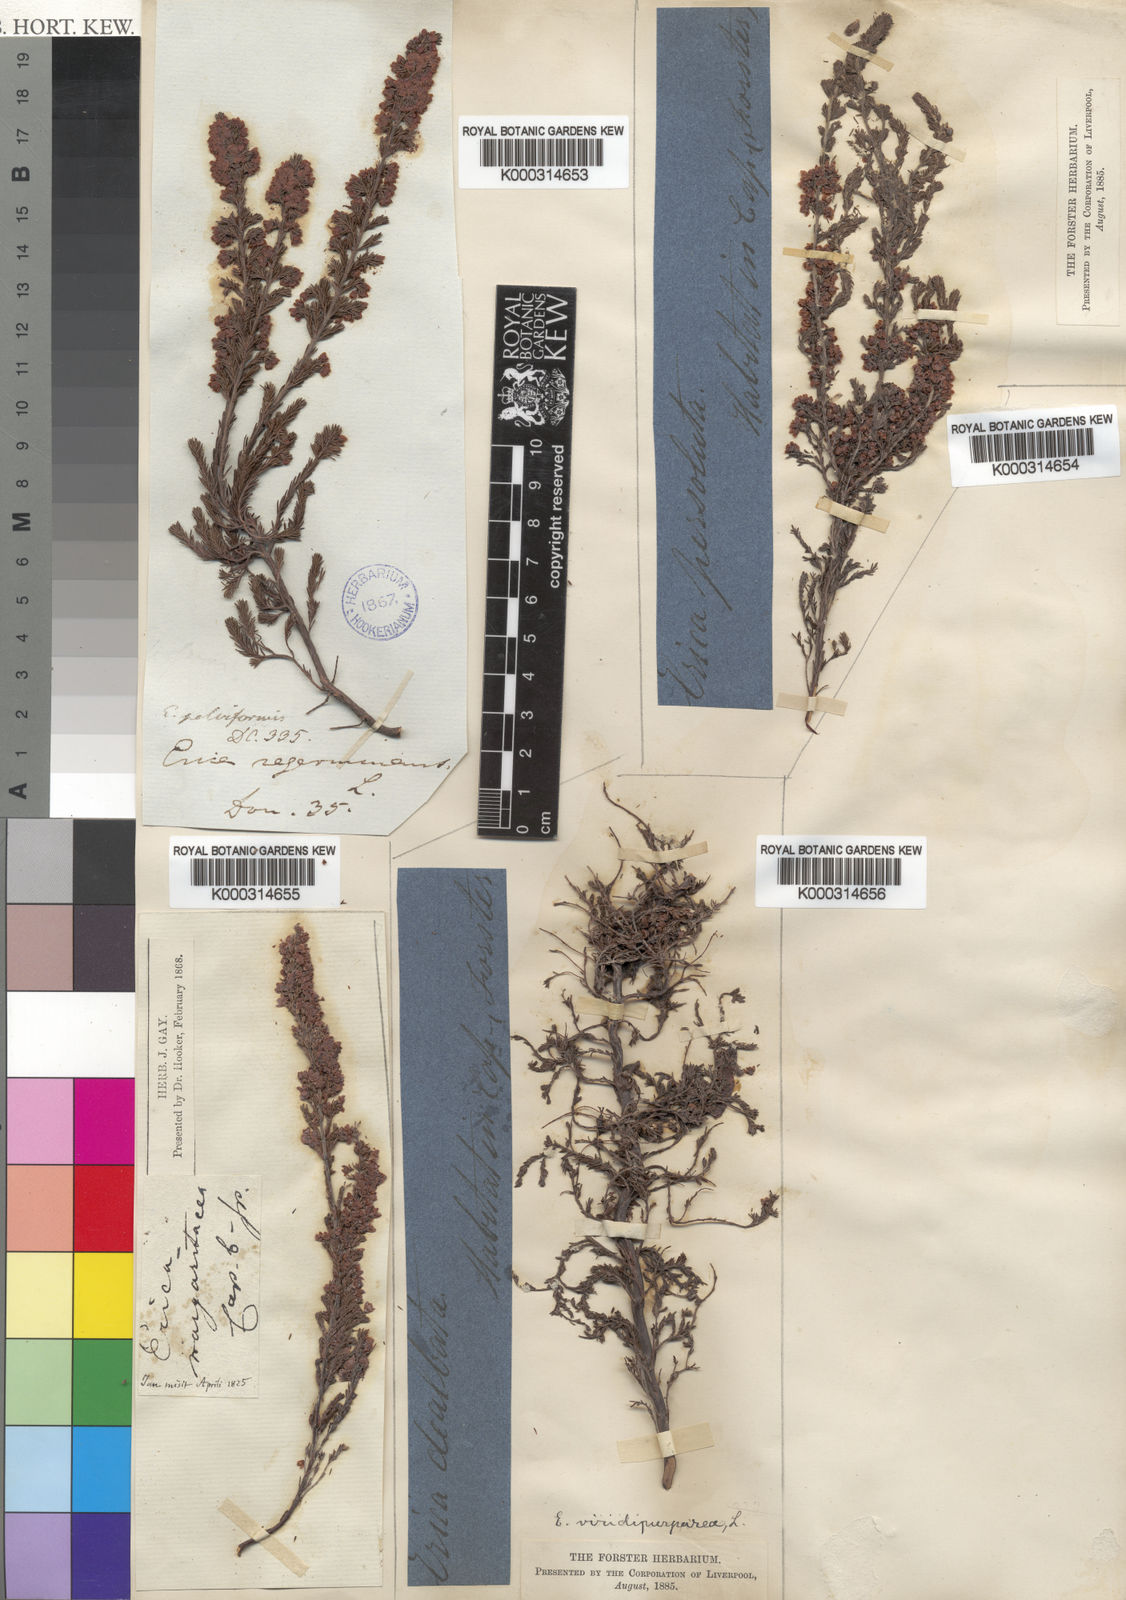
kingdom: Plantae
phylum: Tracheophyta
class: Magnoliopsida
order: Ericales
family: Ericaceae
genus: Erica
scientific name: Erica mauritanica
